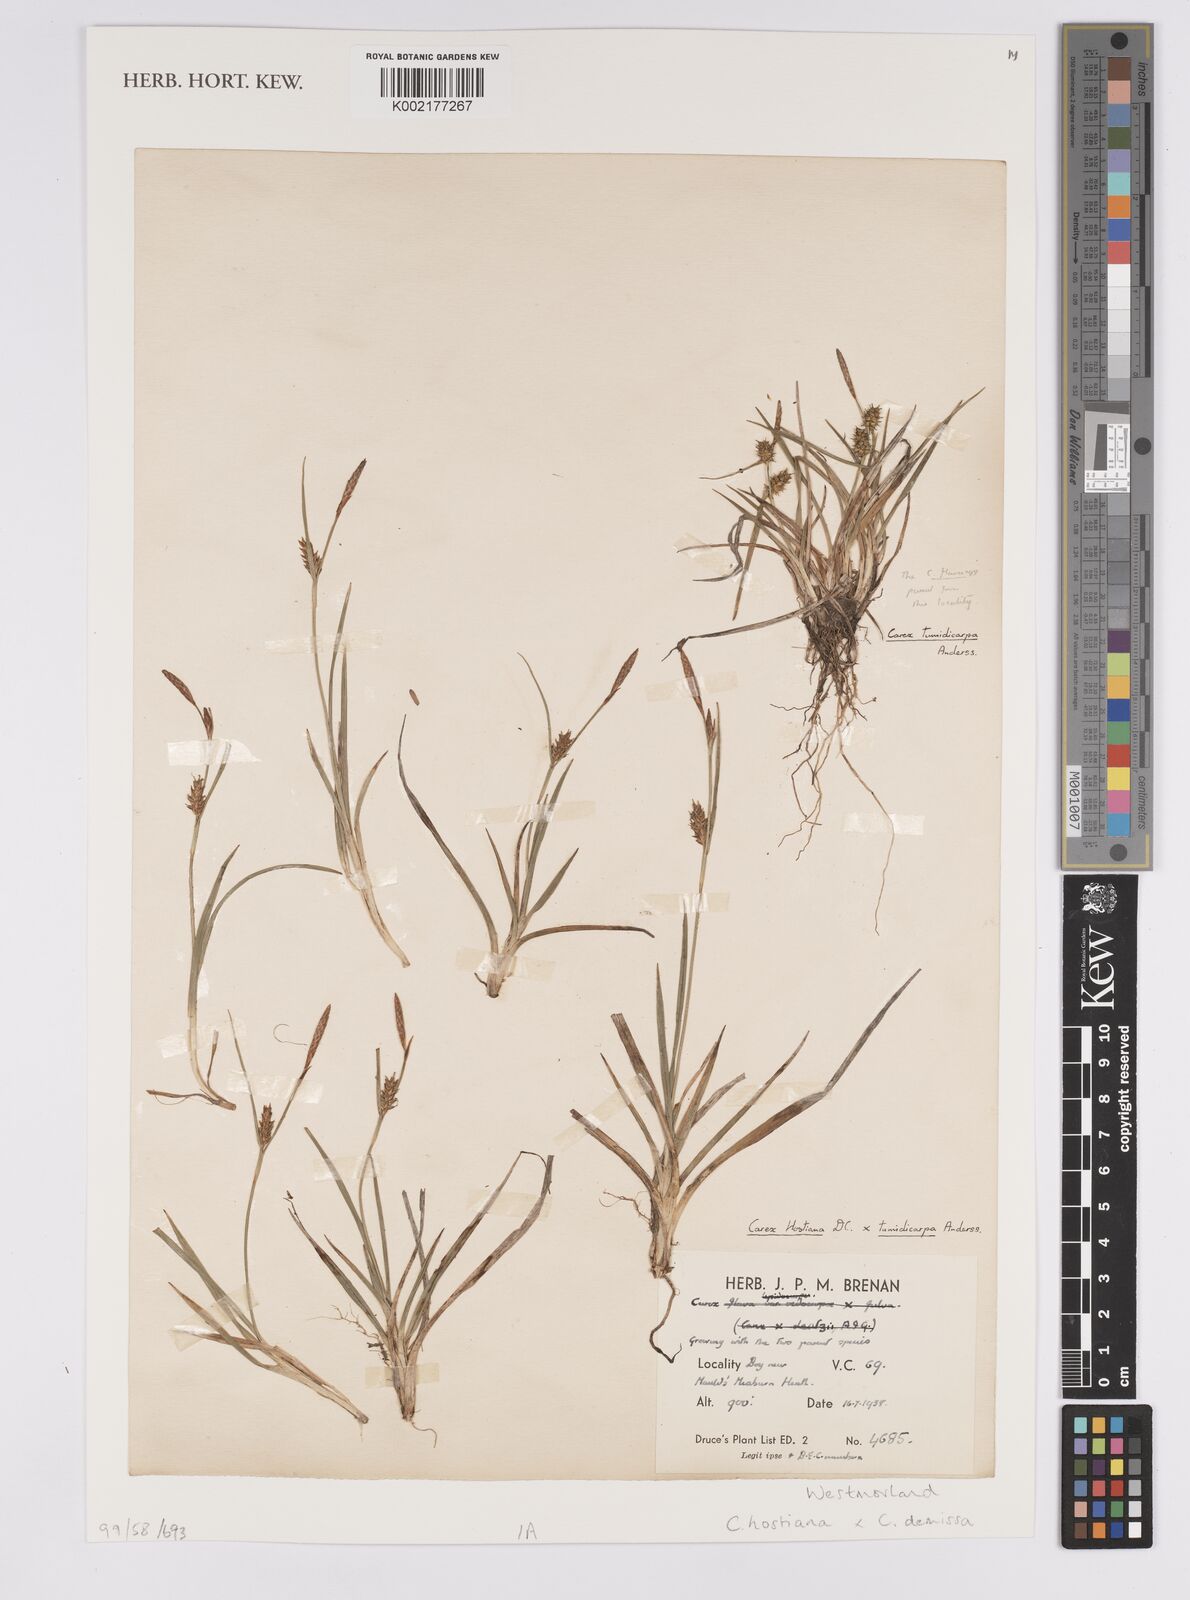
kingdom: Plantae
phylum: Tracheophyta
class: Liliopsida
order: Poales
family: Cyperaceae
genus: Carex
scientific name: Carex hostiana
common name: Tawny sedge
